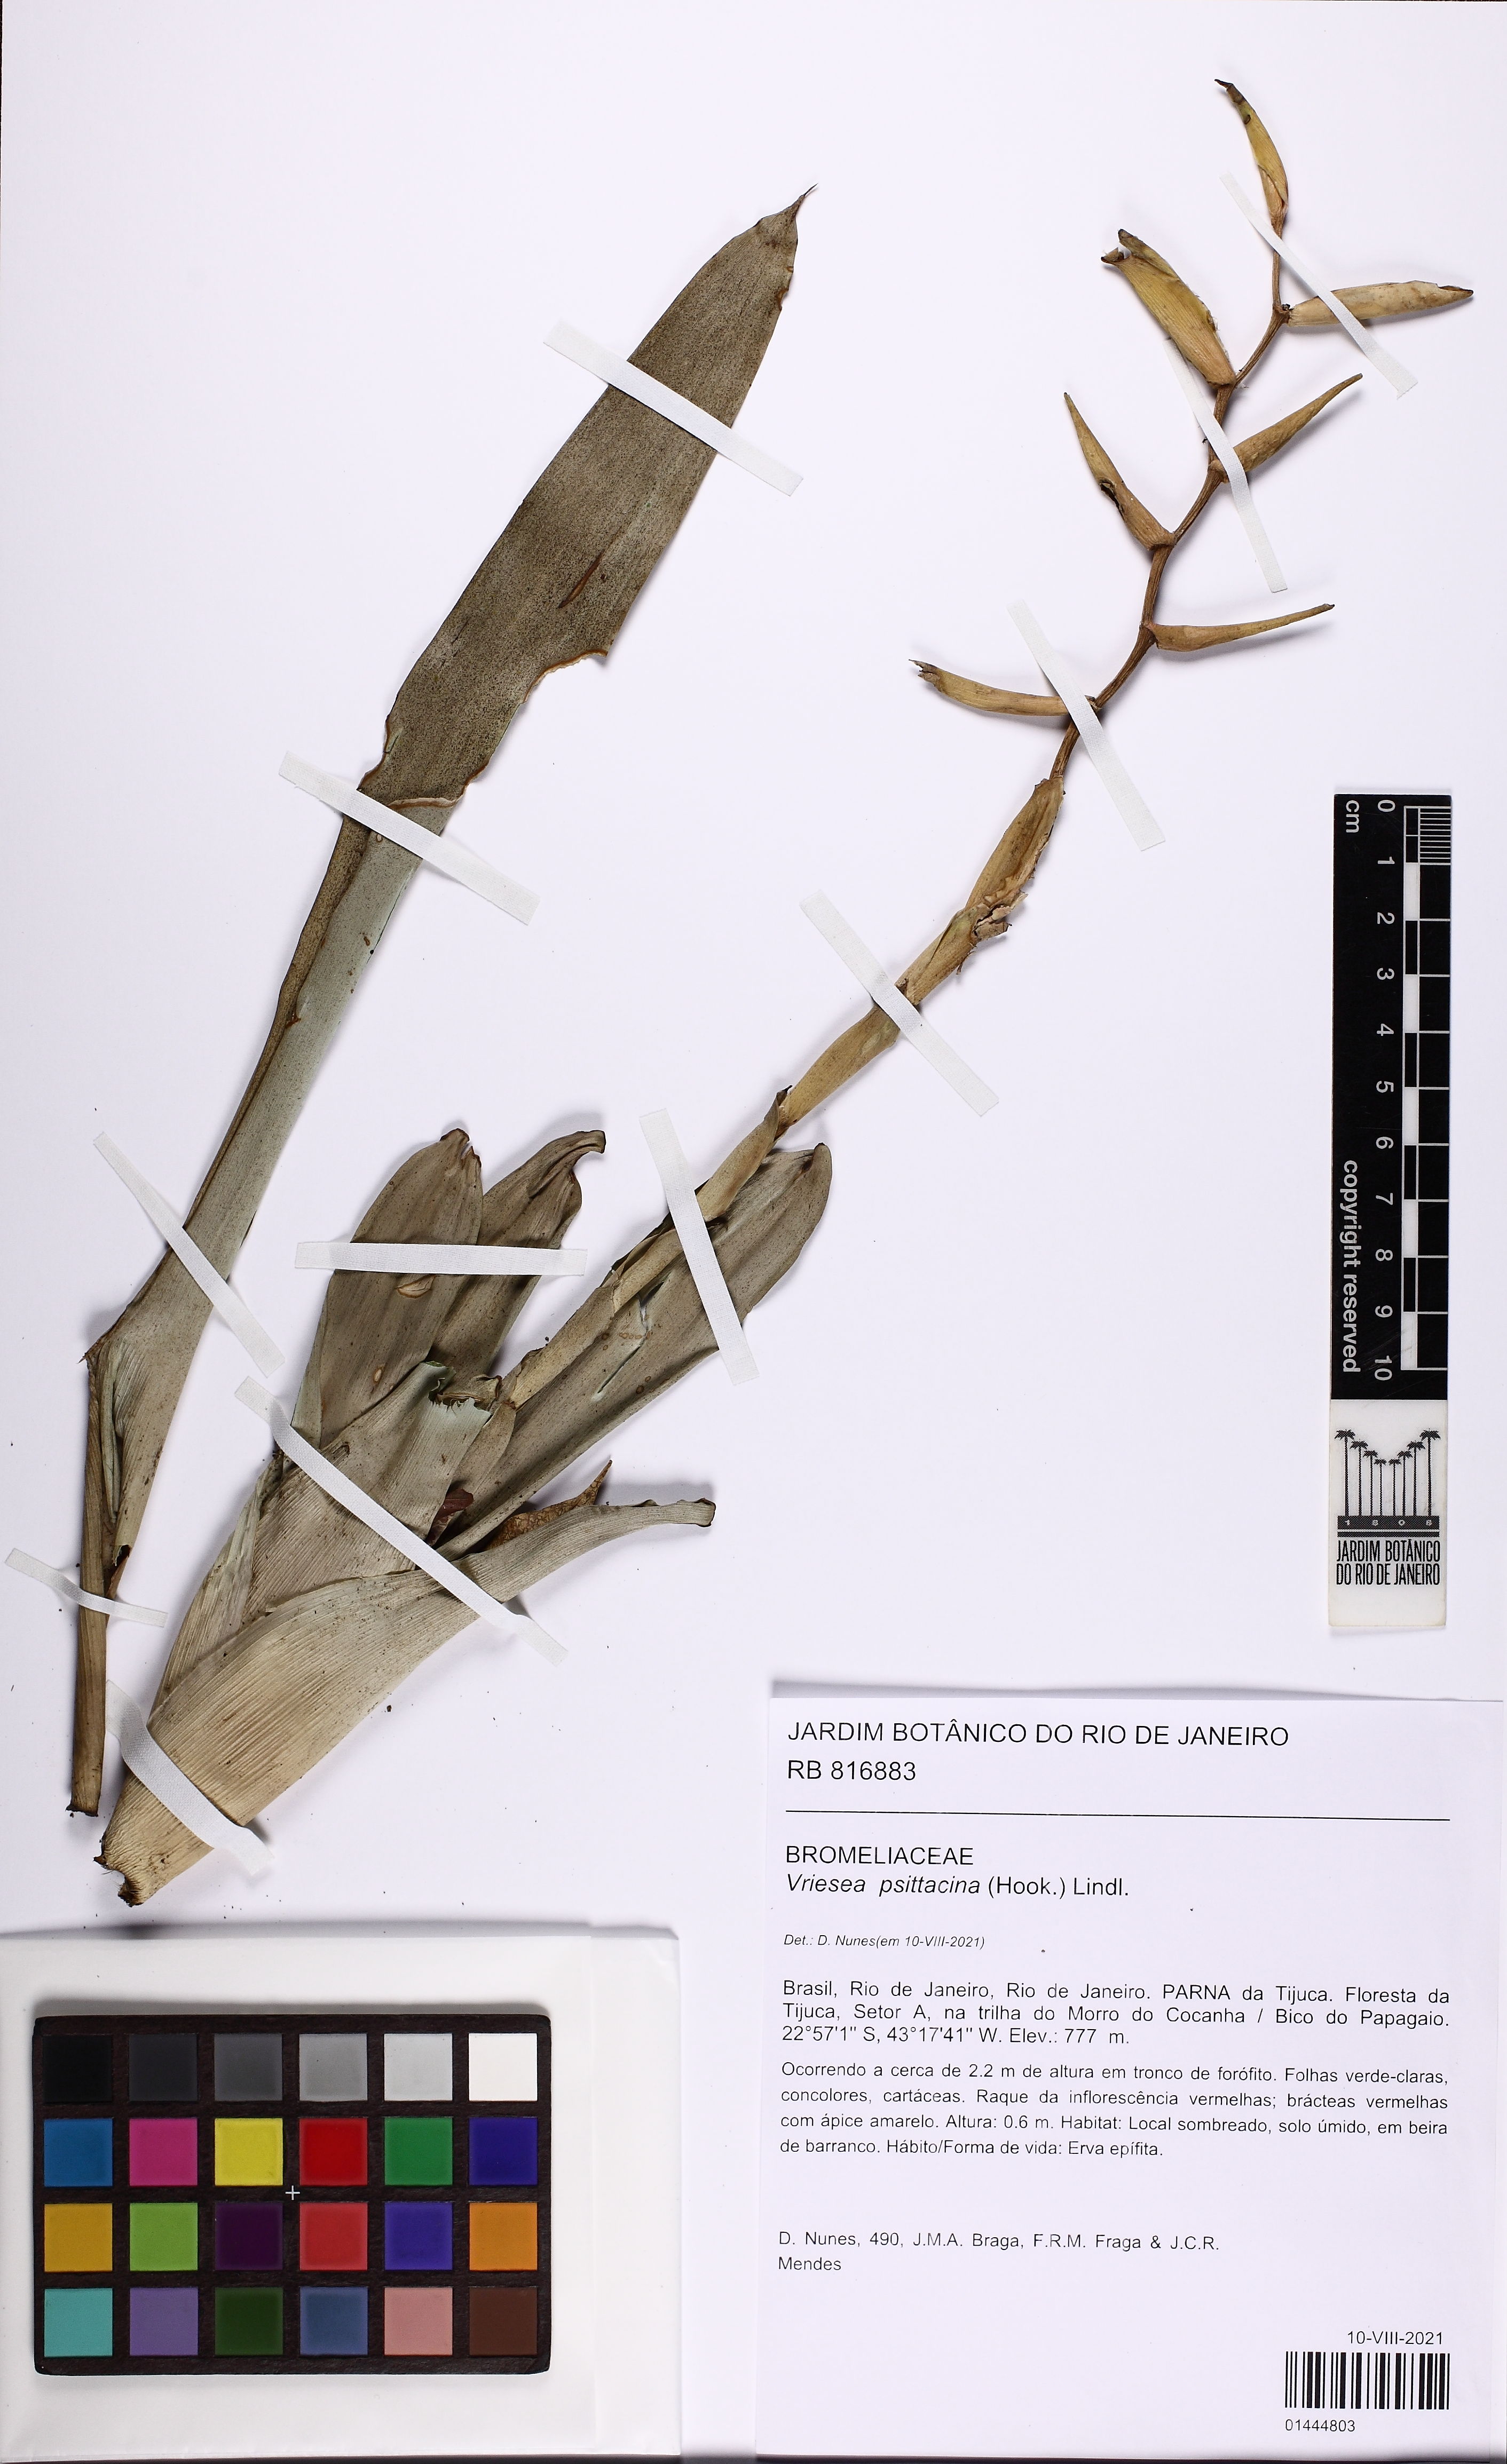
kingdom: Plantae
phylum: Tracheophyta
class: Liliopsida
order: Poales
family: Bromeliaceae
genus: Vriesea
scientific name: Vriesea psittacina
